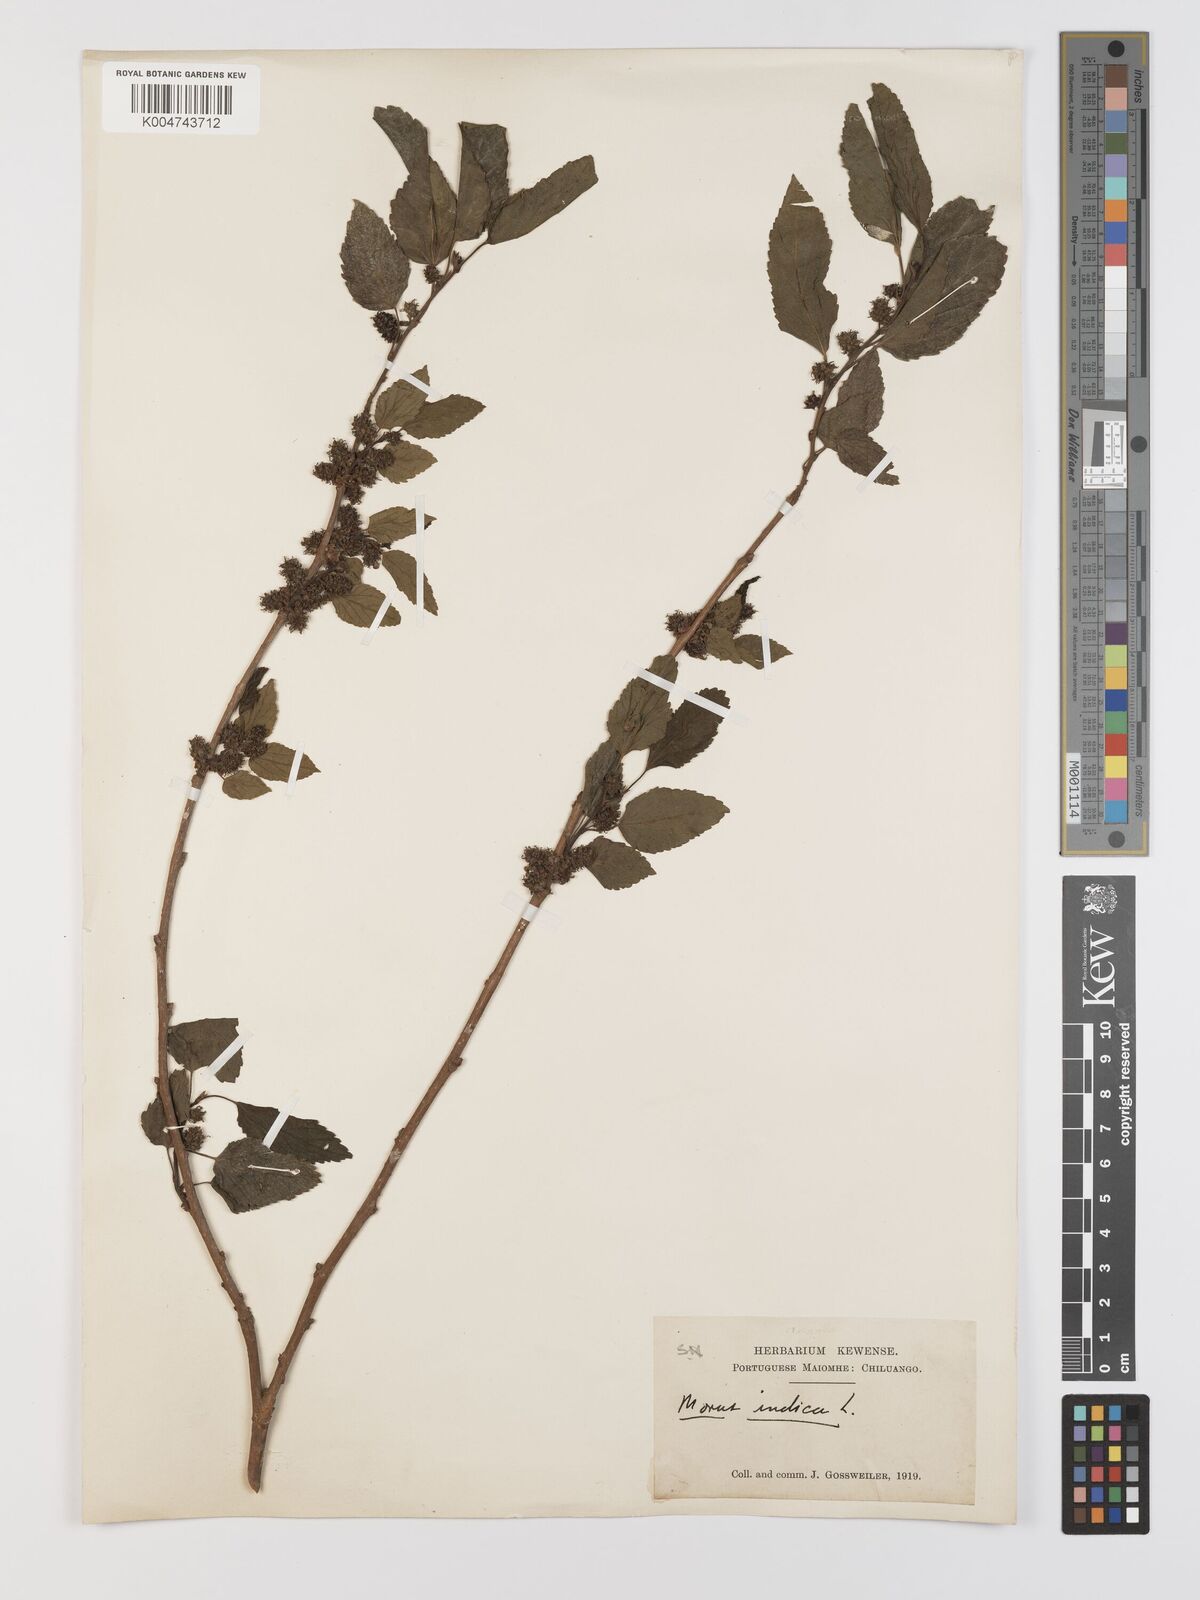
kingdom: Plantae
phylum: Tracheophyta
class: Magnoliopsida
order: Rosales
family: Moraceae
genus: Morus
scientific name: Morus indica
